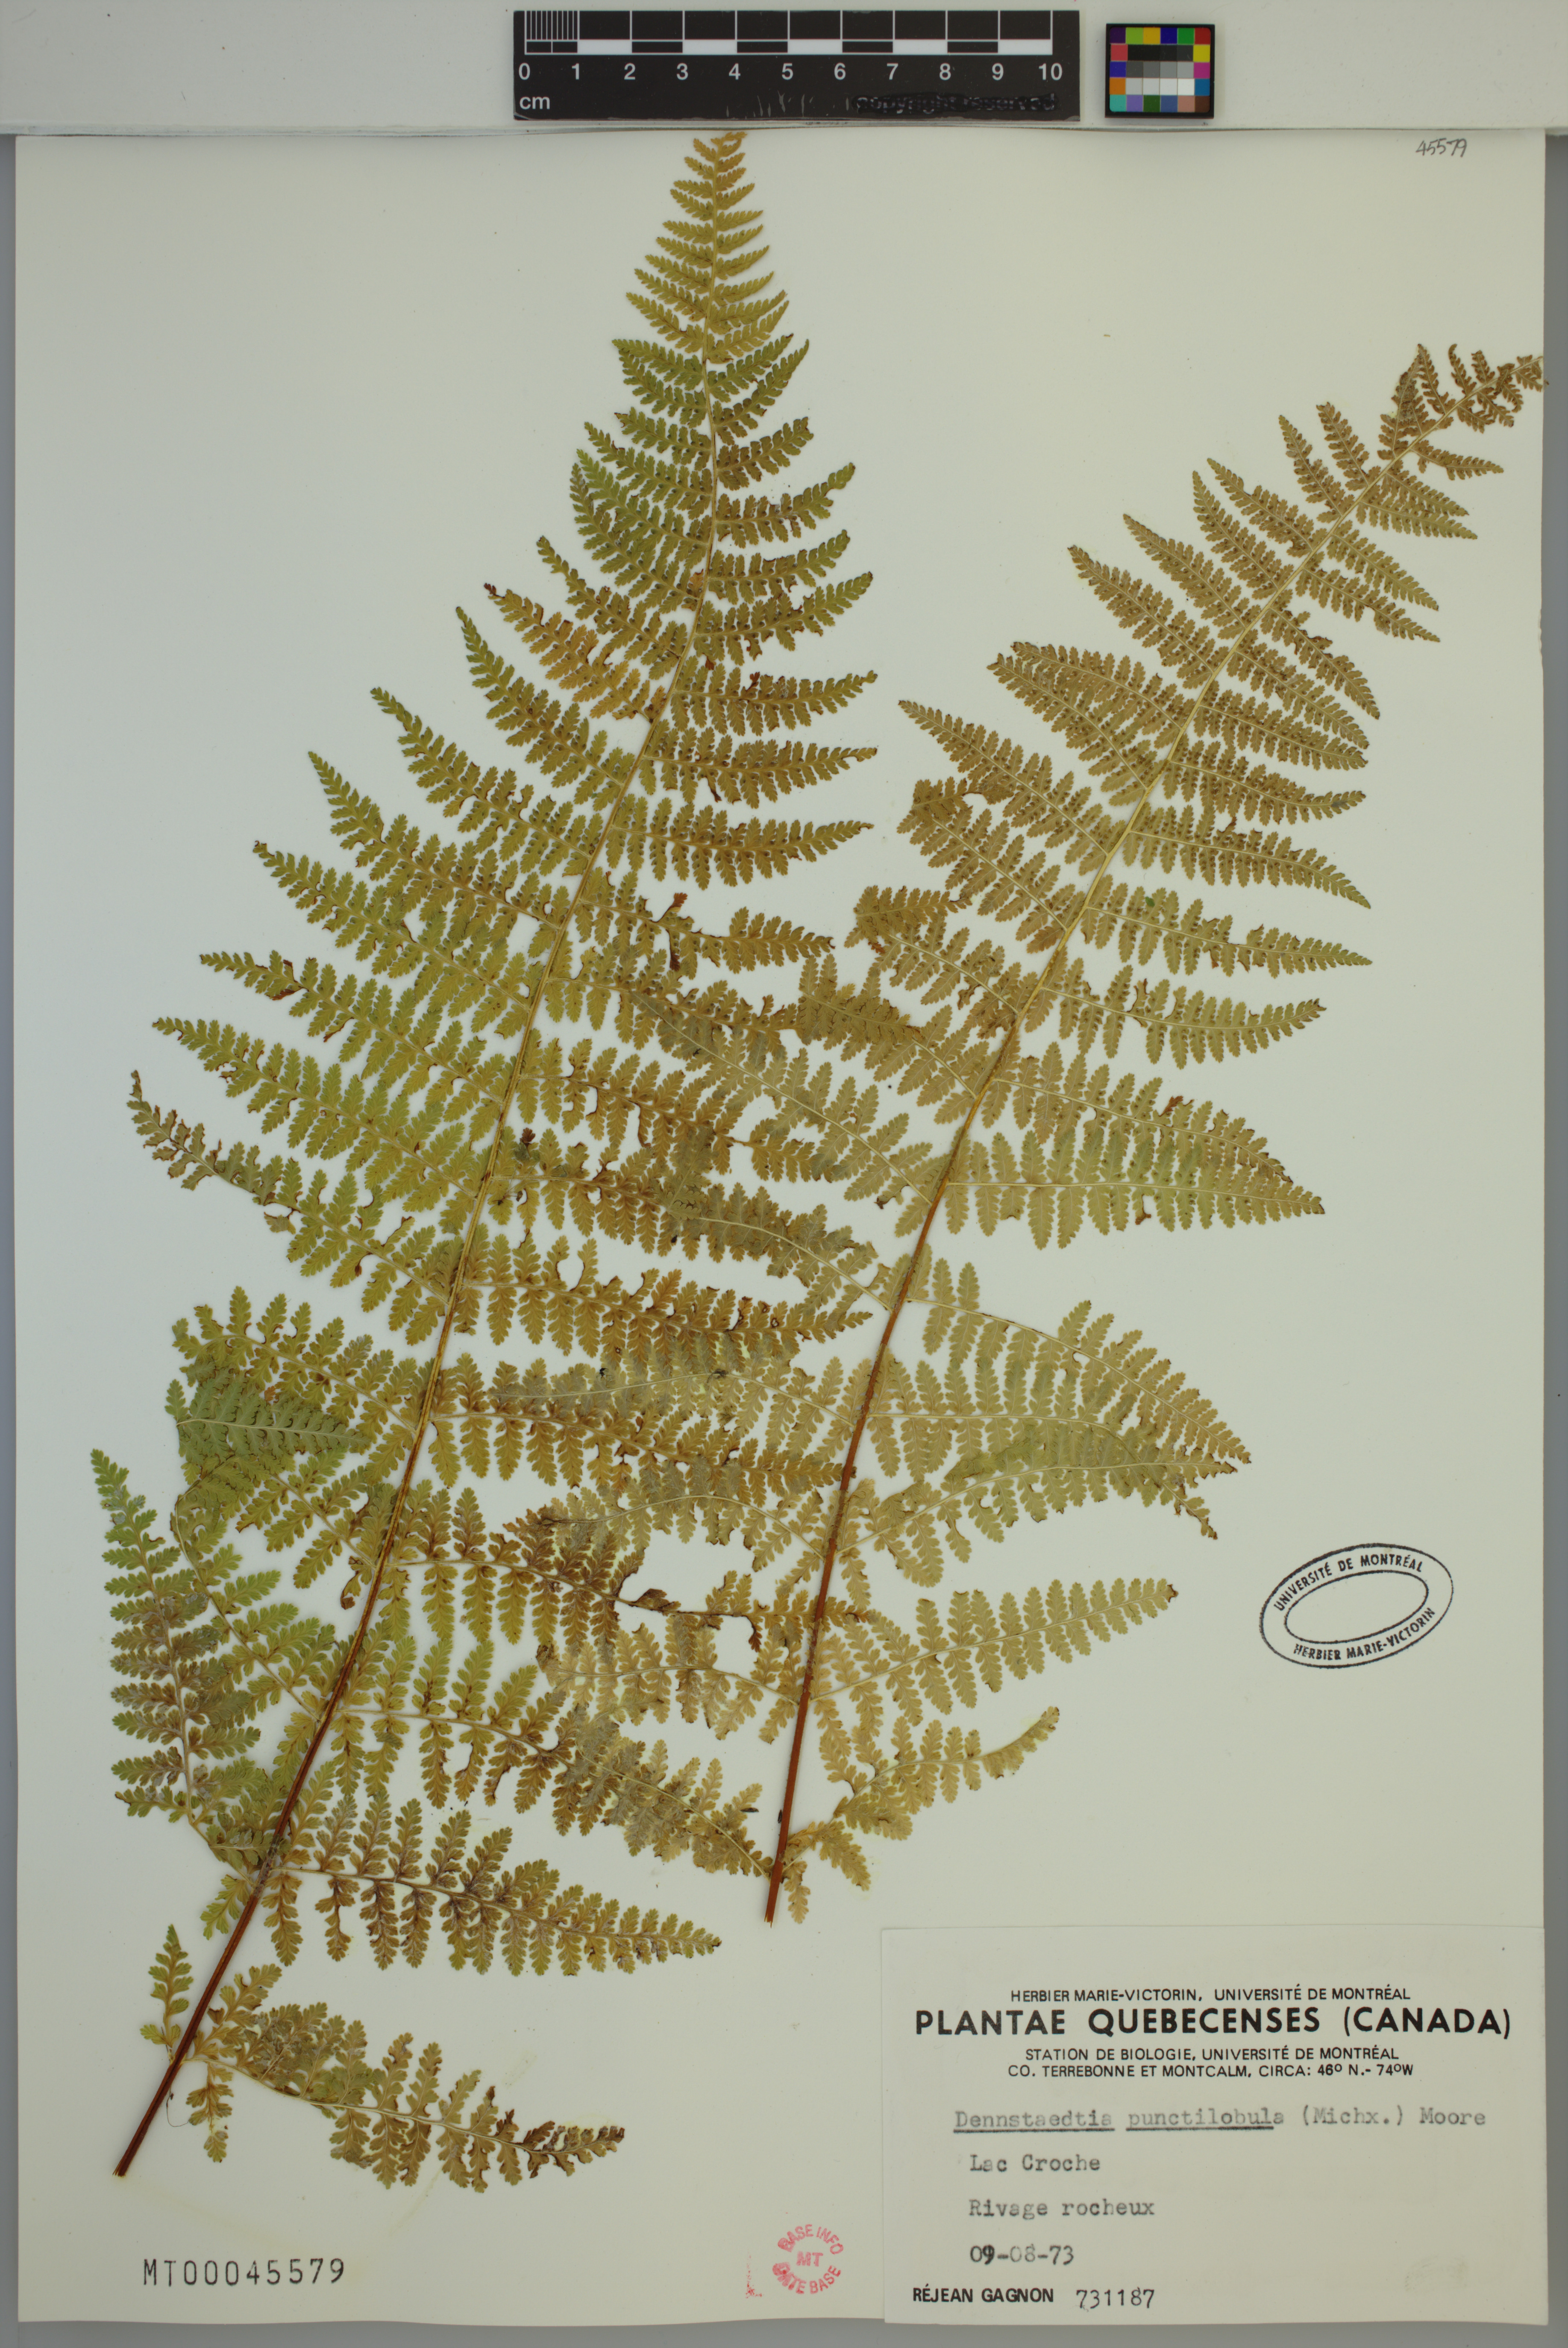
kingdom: Plantae
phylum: Tracheophyta
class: Polypodiopsida
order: Polypodiales
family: Dennstaedtiaceae
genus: Sitobolium
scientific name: Sitobolium punctilobum
